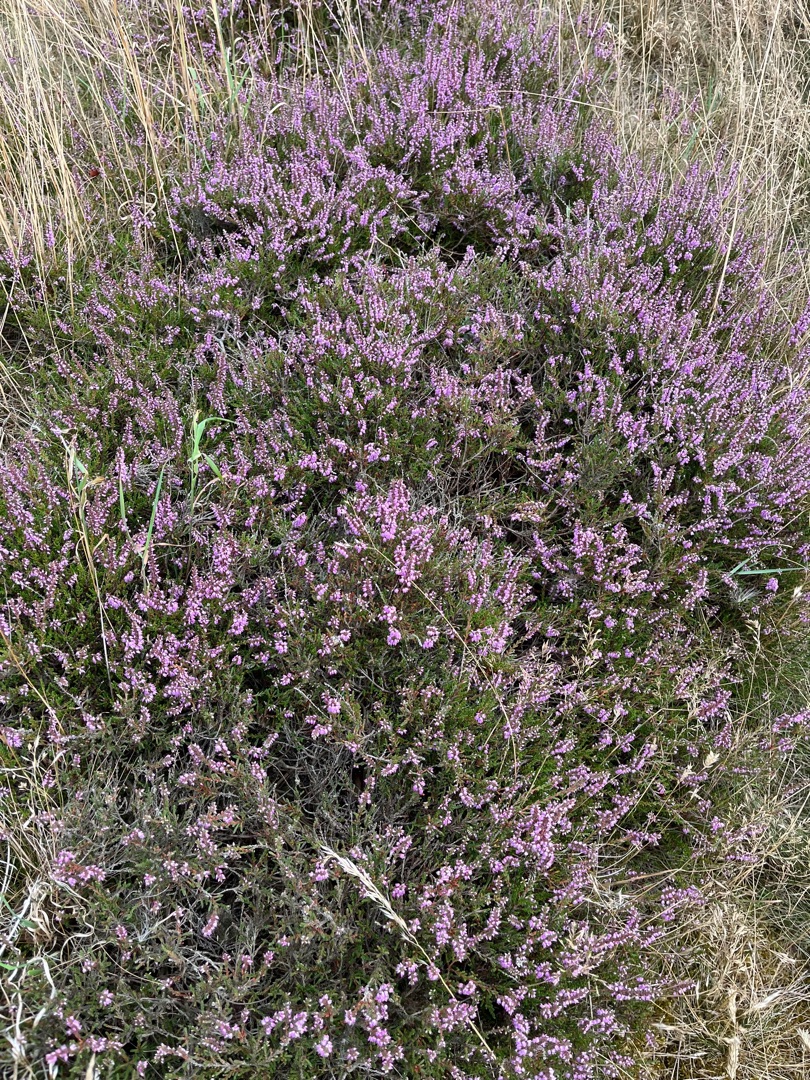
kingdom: Plantae
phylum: Tracheophyta
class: Magnoliopsida
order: Ericales
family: Ericaceae
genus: Calluna
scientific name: Calluna vulgaris
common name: Hedelyng
